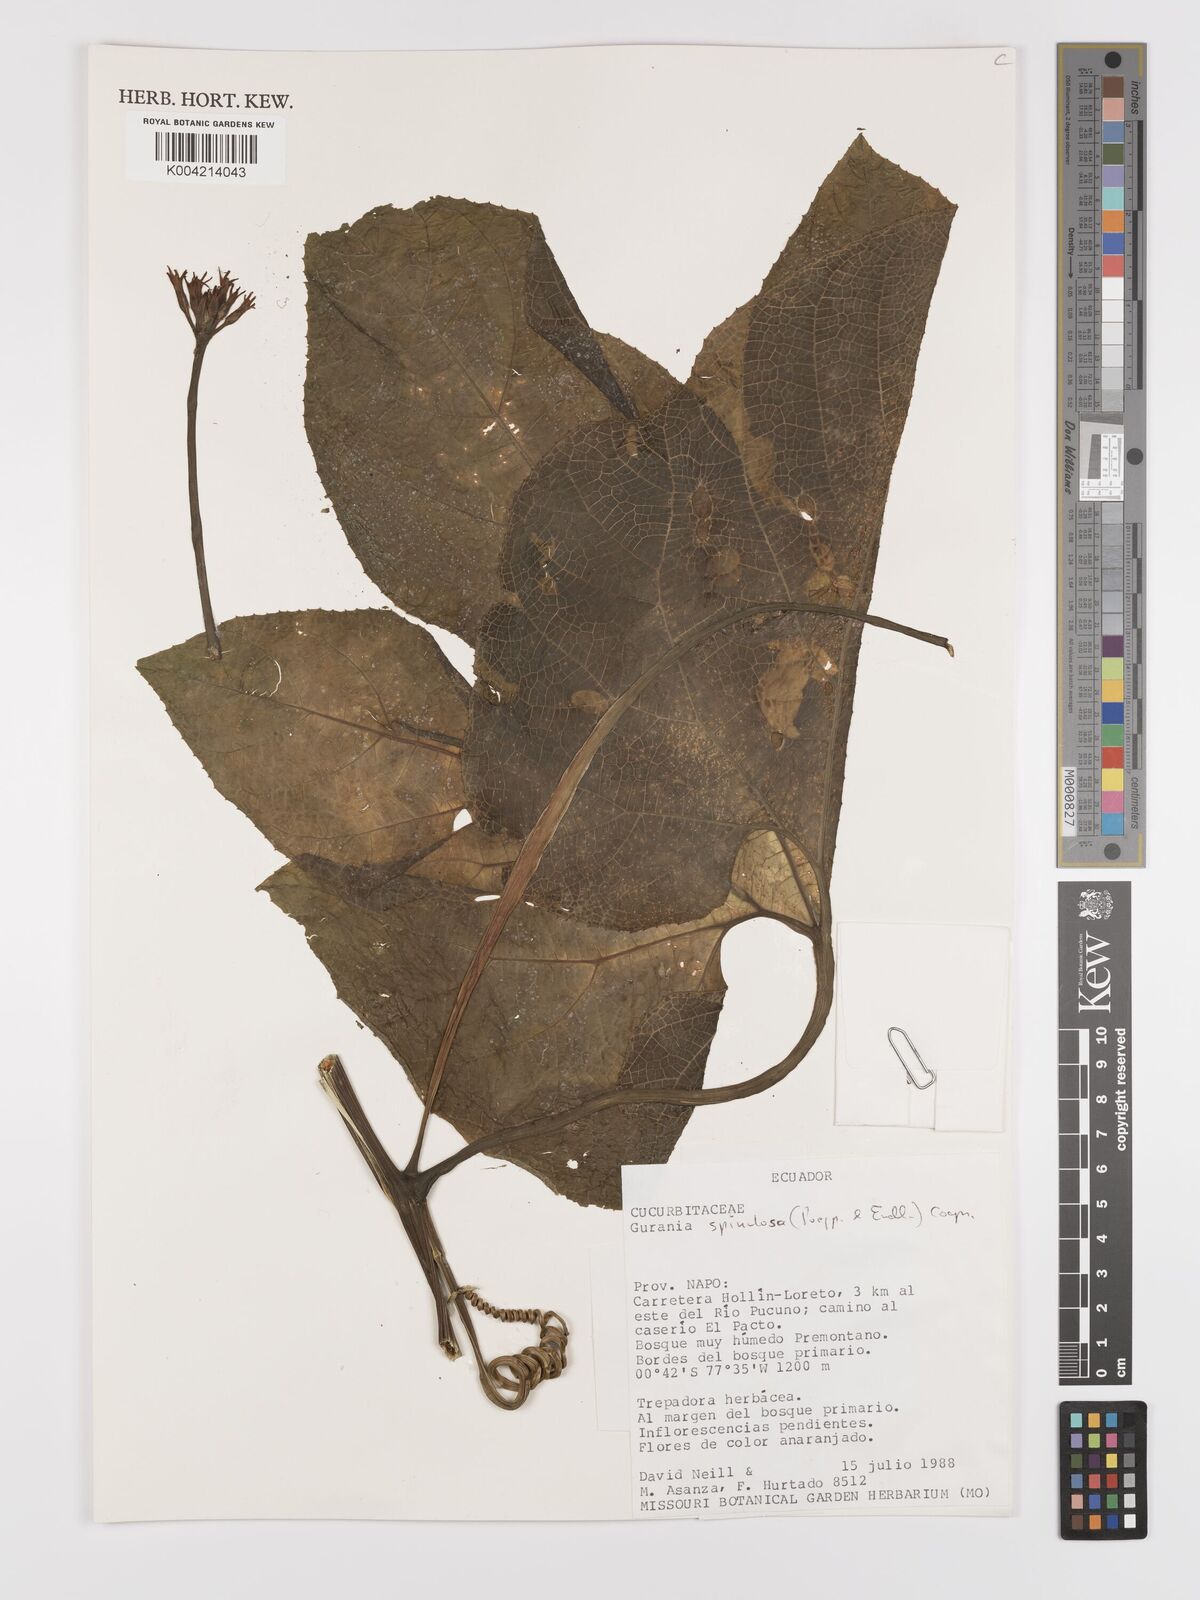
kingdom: Plantae
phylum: Tracheophyta
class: Magnoliopsida
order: Cucurbitales
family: Cucurbitaceae
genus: Gurania
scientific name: Gurania lobata
